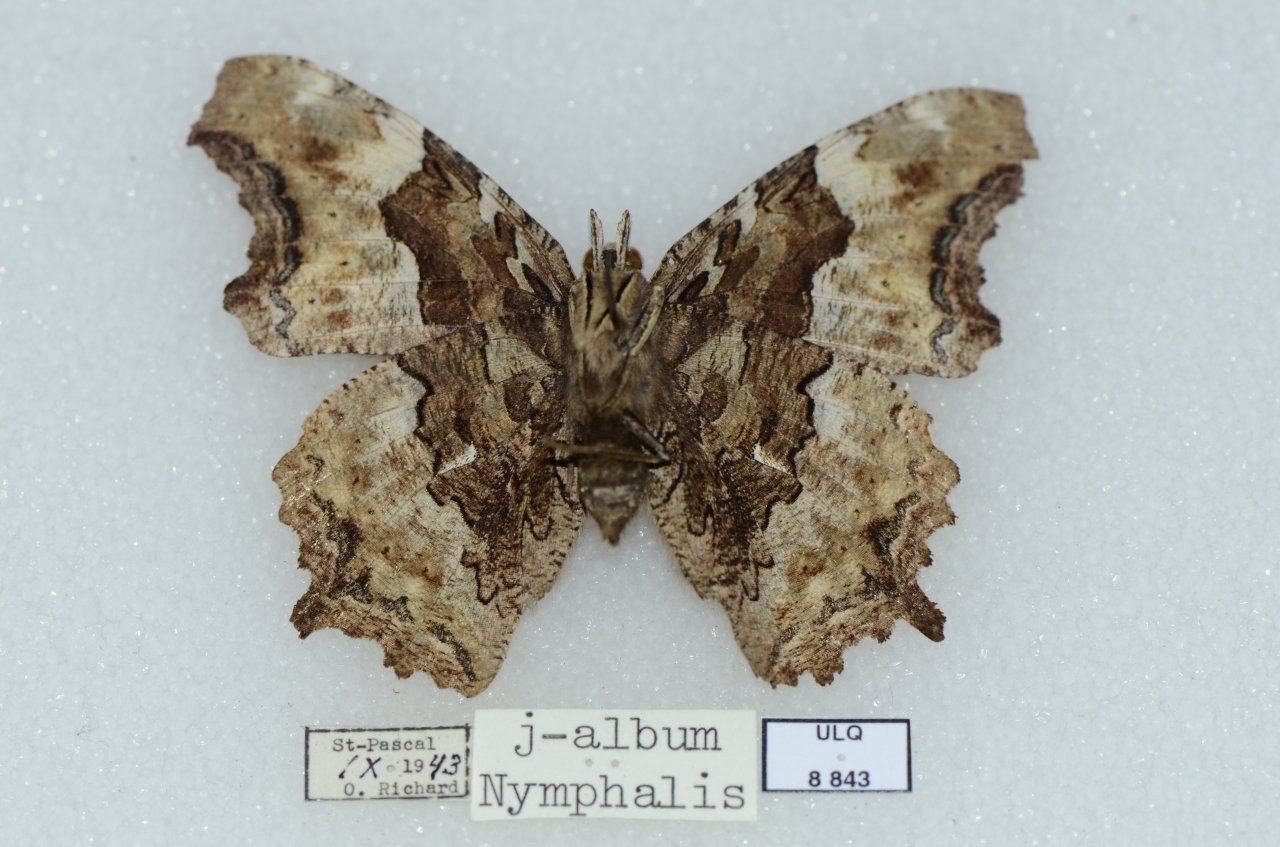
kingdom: Animalia
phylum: Arthropoda
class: Insecta
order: Lepidoptera
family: Nymphalidae
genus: Polygonia
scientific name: Polygonia vaualbum
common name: Compton Tortoiseshell
